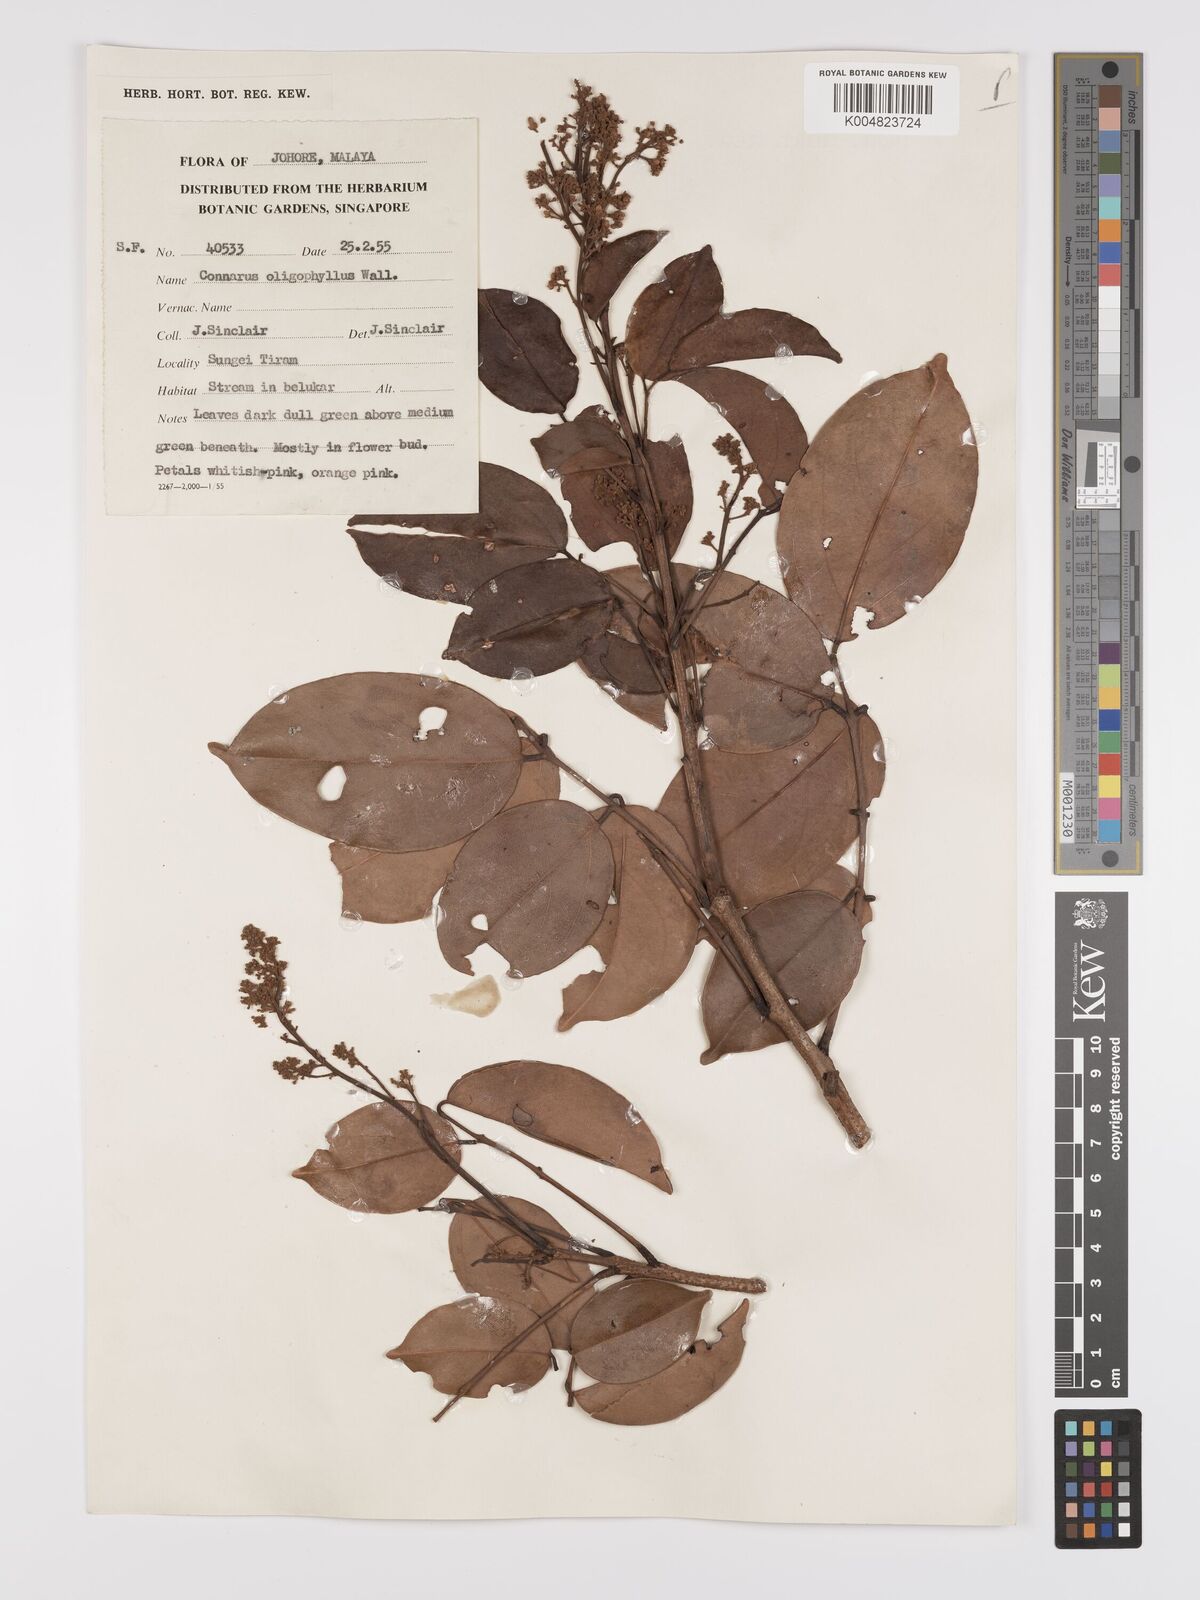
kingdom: Plantae
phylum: Tracheophyta
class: Magnoliopsida
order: Oxalidales
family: Connaraceae
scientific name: Connaraceae
